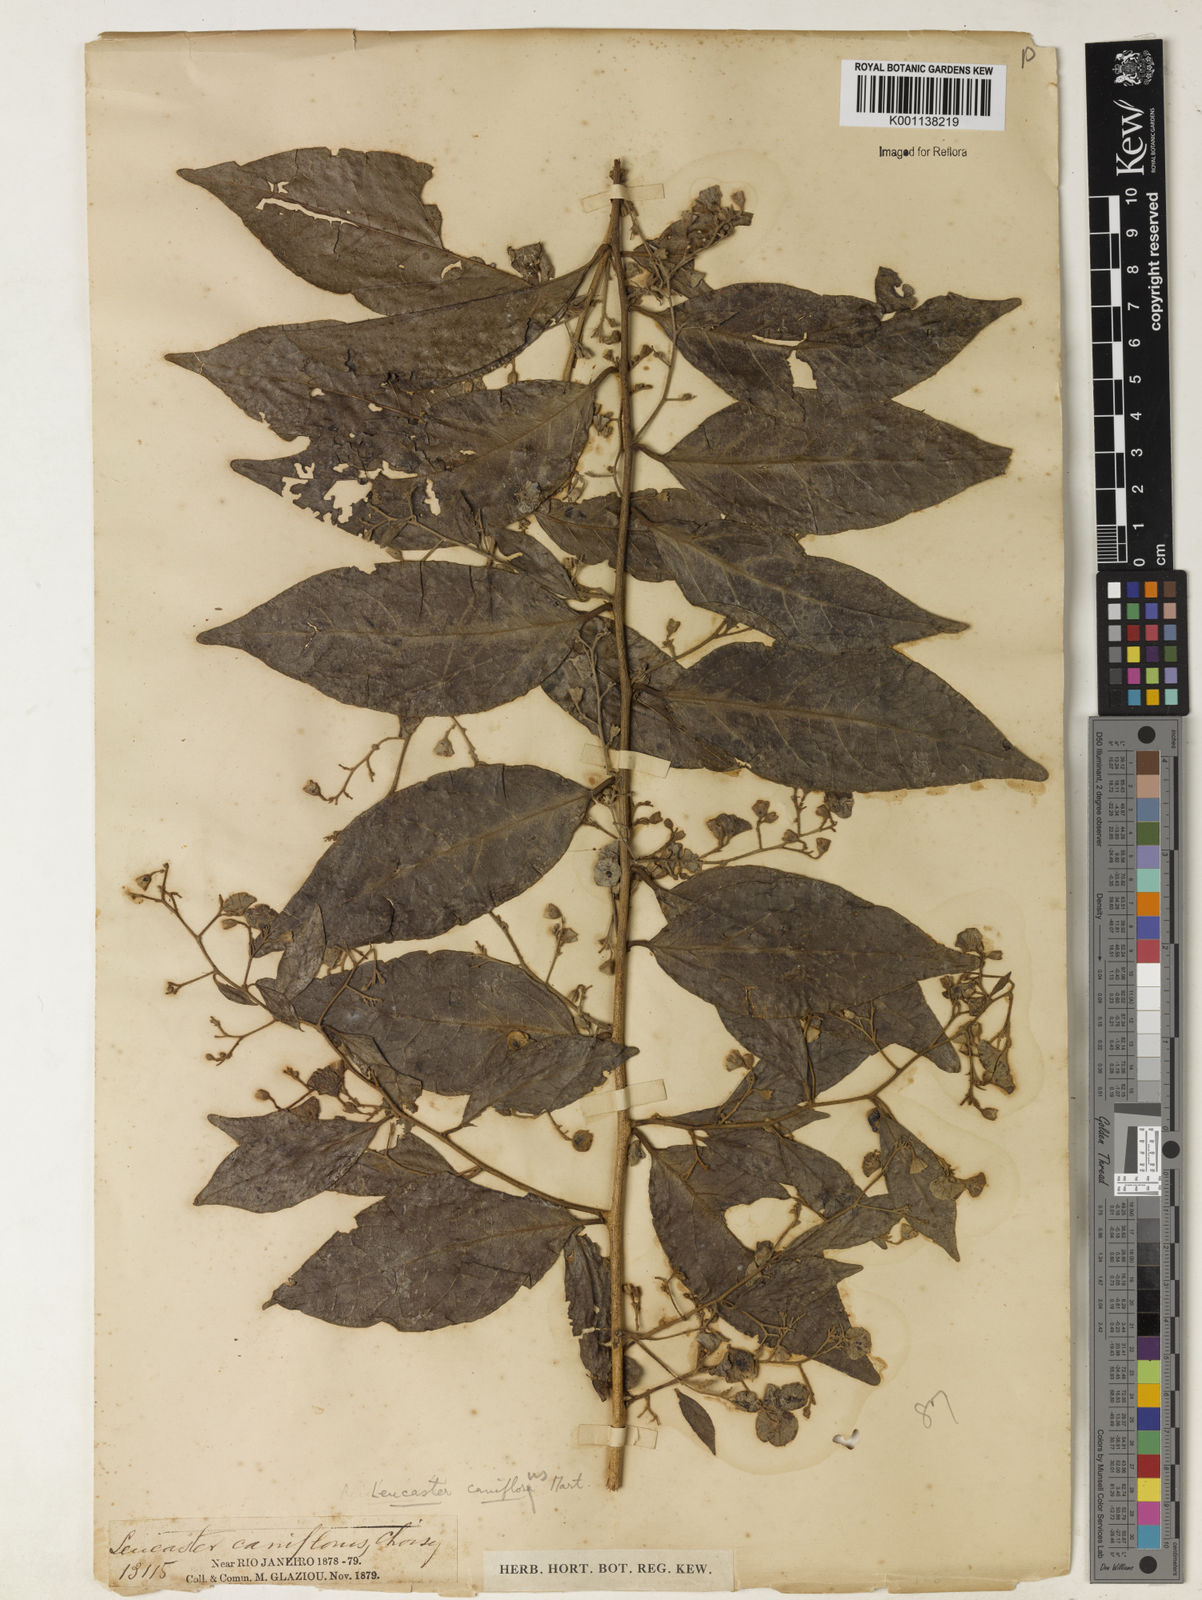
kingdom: Plantae
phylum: Tracheophyta
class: Magnoliopsida
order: Caryophyllales
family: Nyctaginaceae
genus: Leucaster
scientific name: Leucaster caniflorus
